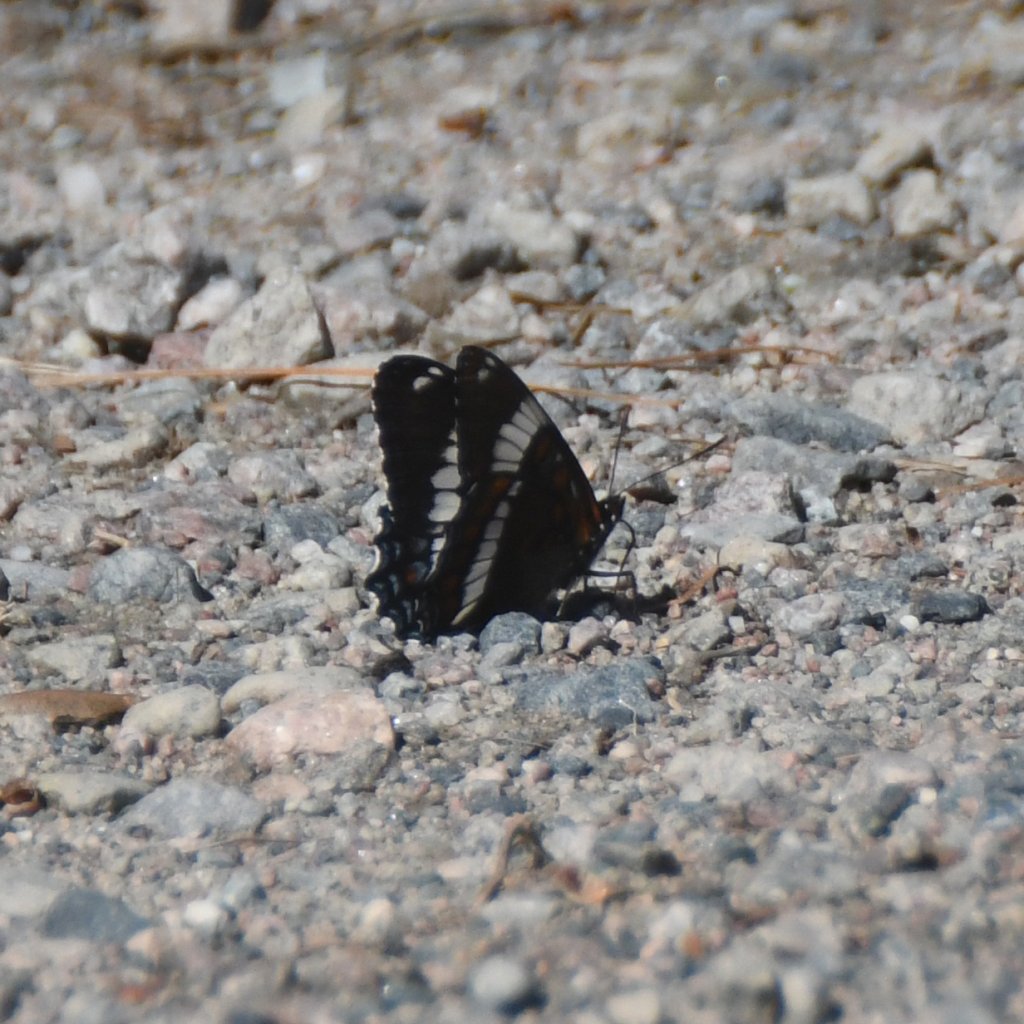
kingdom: Animalia
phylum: Arthropoda
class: Insecta
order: Lepidoptera
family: Nymphalidae
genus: Limenitis
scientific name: Limenitis arthemis
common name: Red-spotted Admiral
